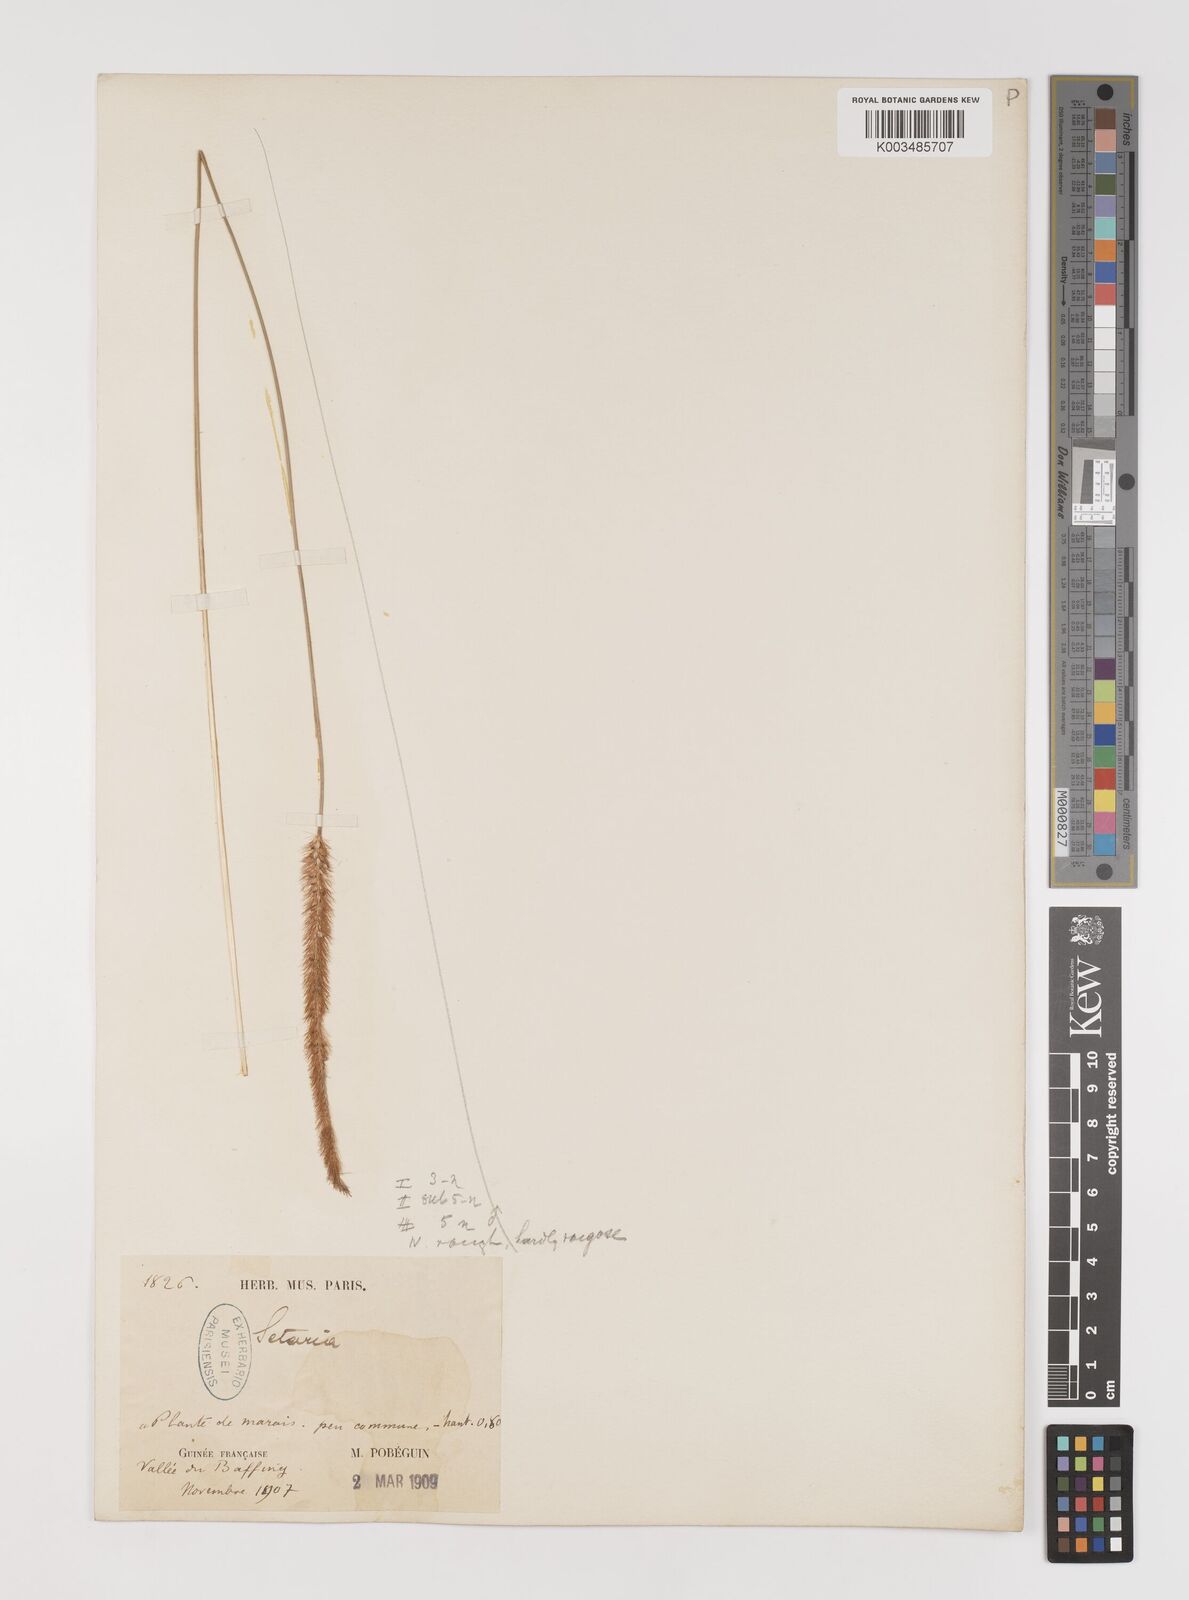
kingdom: Plantae
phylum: Tracheophyta
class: Liliopsida
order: Poales
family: Poaceae
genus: Setaria
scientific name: Setaria sphacelata
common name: African bristlegrass
